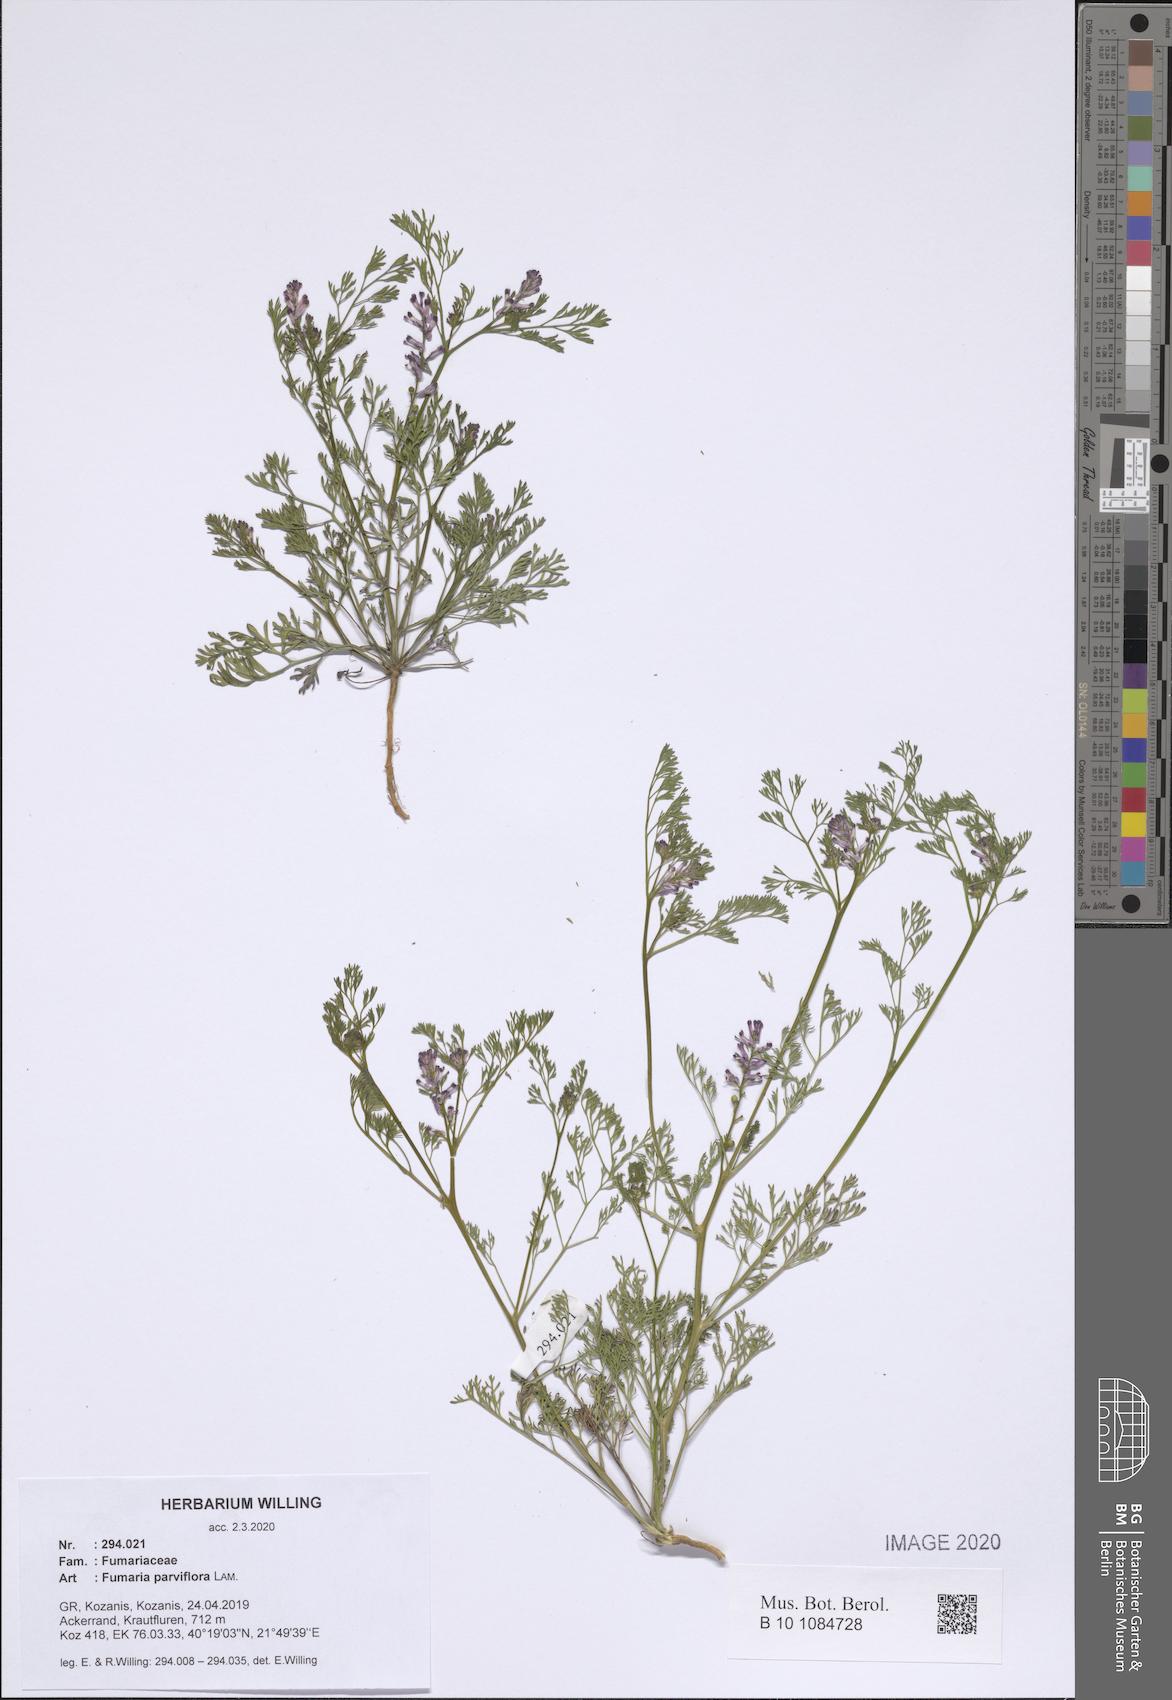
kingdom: Plantae
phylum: Tracheophyta
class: Magnoliopsida
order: Ranunculales
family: Papaveraceae
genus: Fumaria
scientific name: Fumaria parviflora
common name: Fine-leaved fumitory
